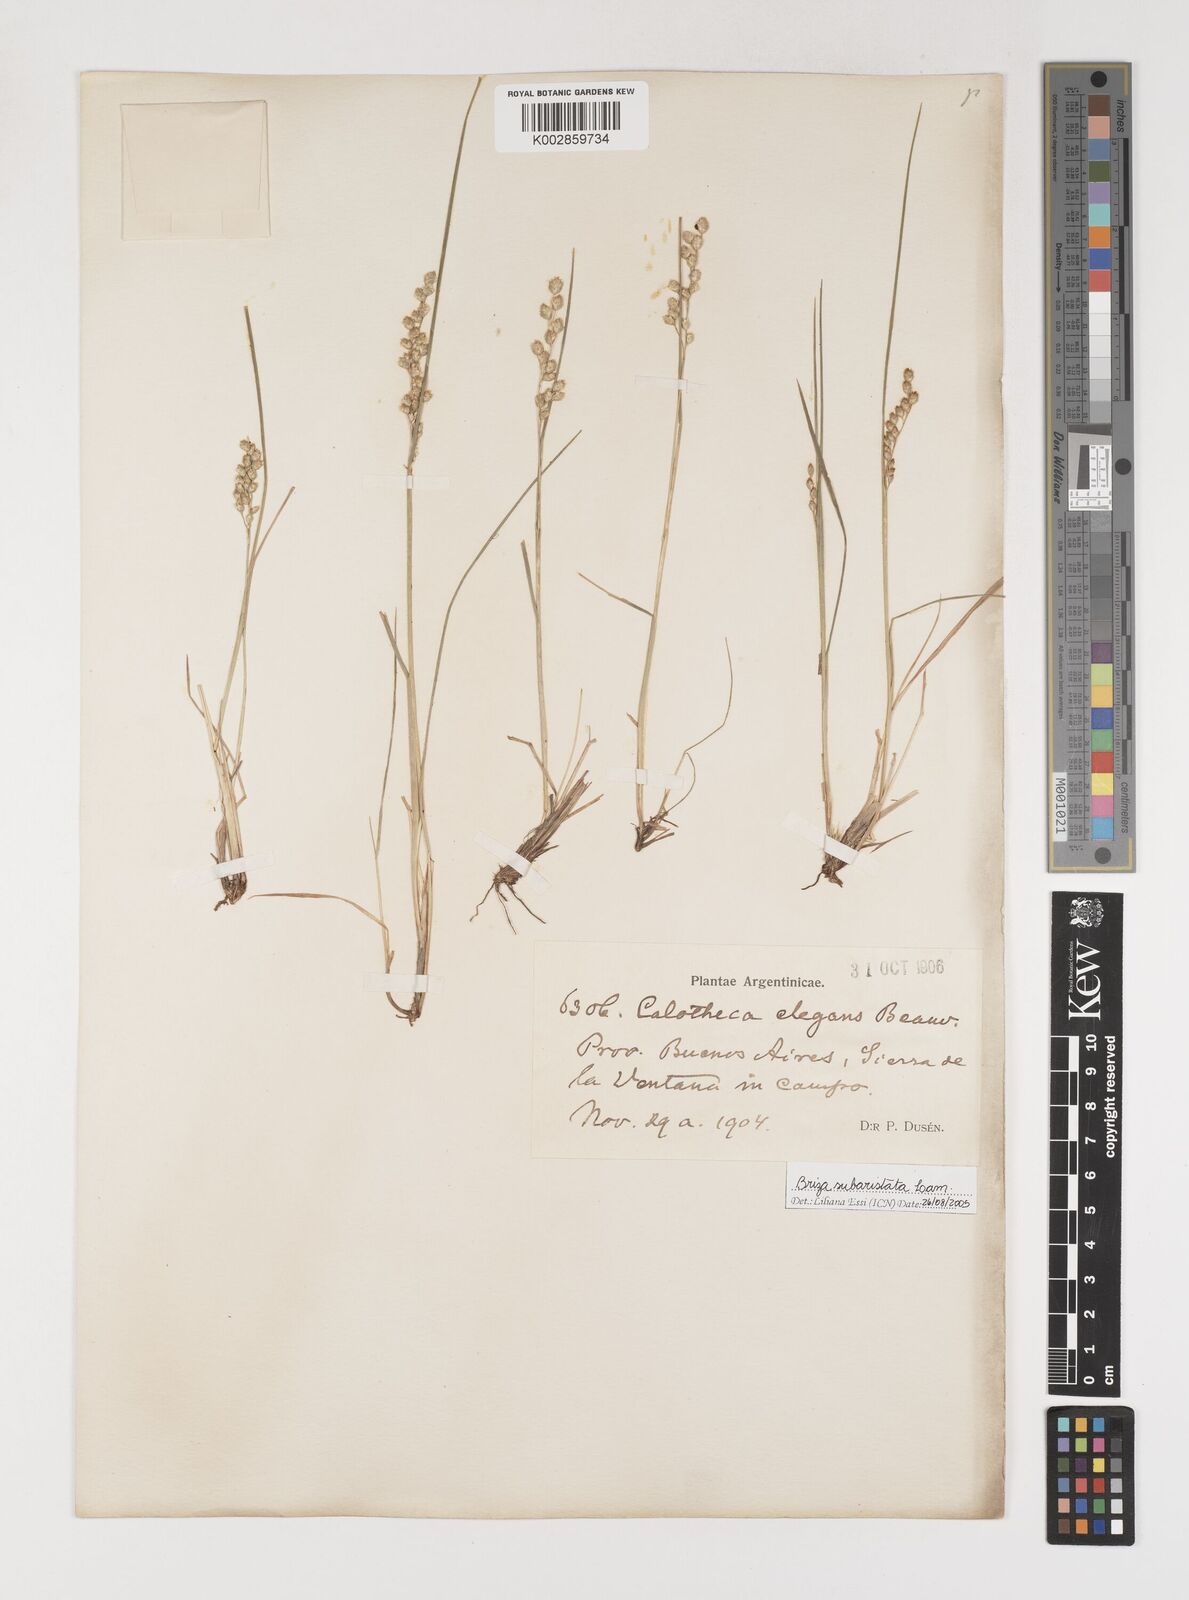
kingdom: Plantae
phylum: Tracheophyta
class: Liliopsida
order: Poales
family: Poaceae
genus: Chascolytrum
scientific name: Chascolytrum subaristatum
